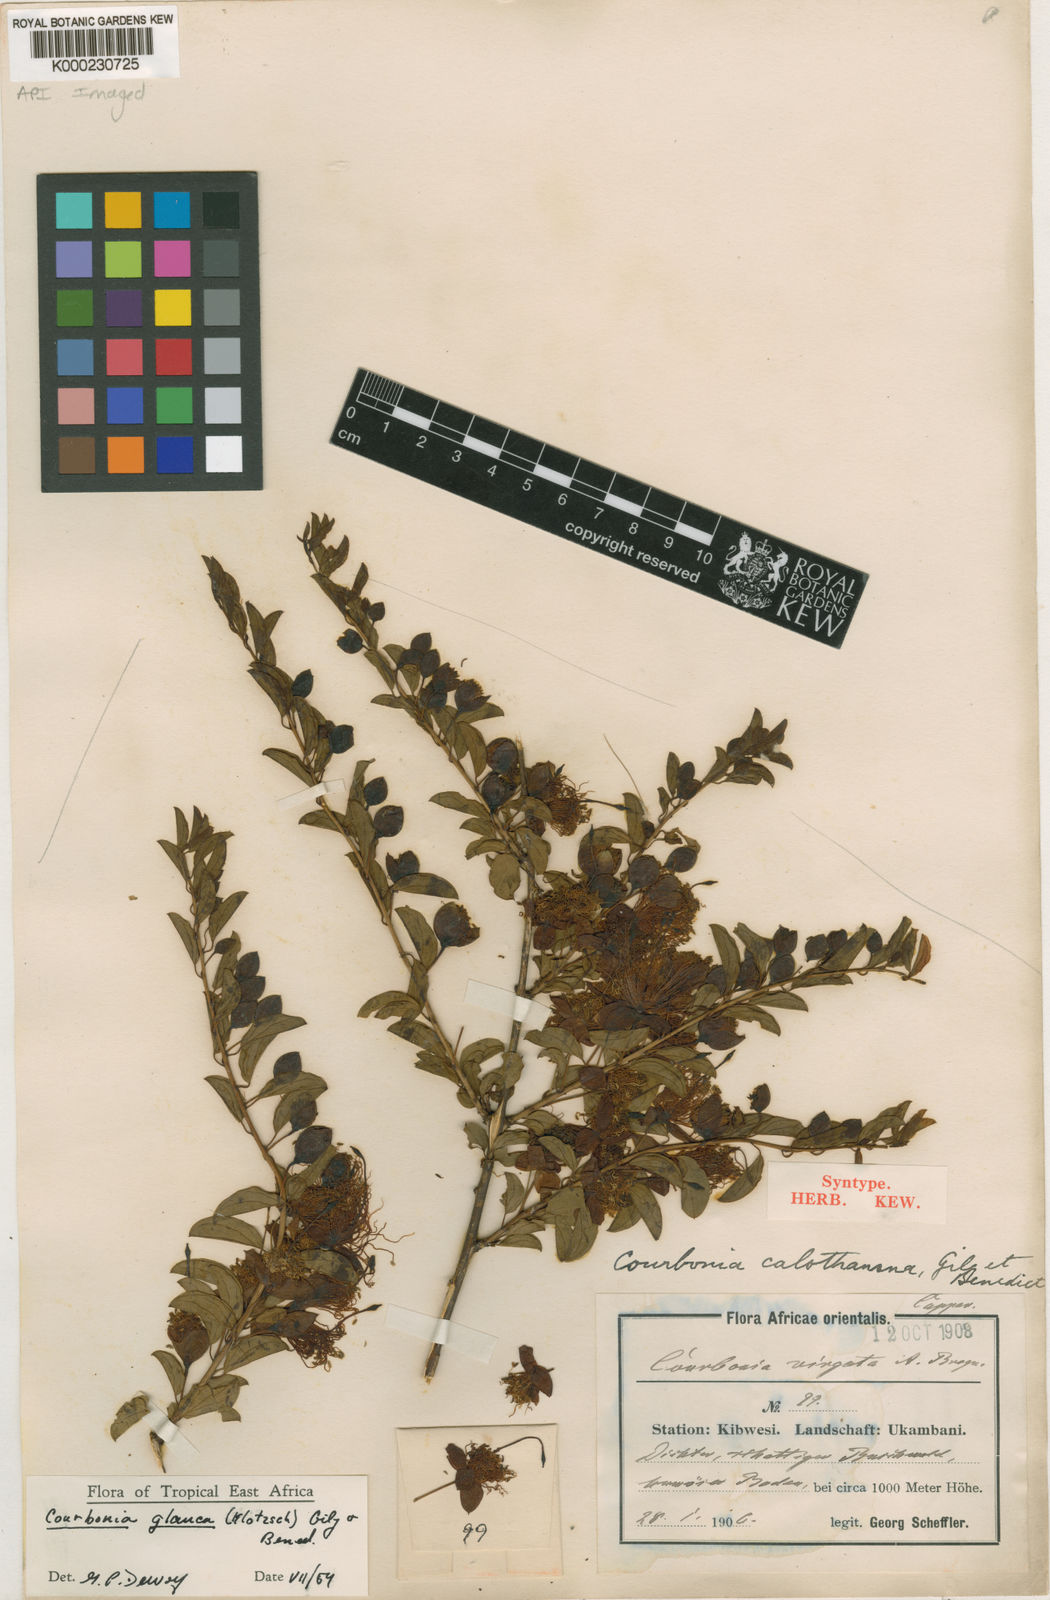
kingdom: Plantae
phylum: Tracheophyta
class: Magnoliopsida
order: Brassicales
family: Capparaceae
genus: Maerua
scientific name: Maerua edulis
